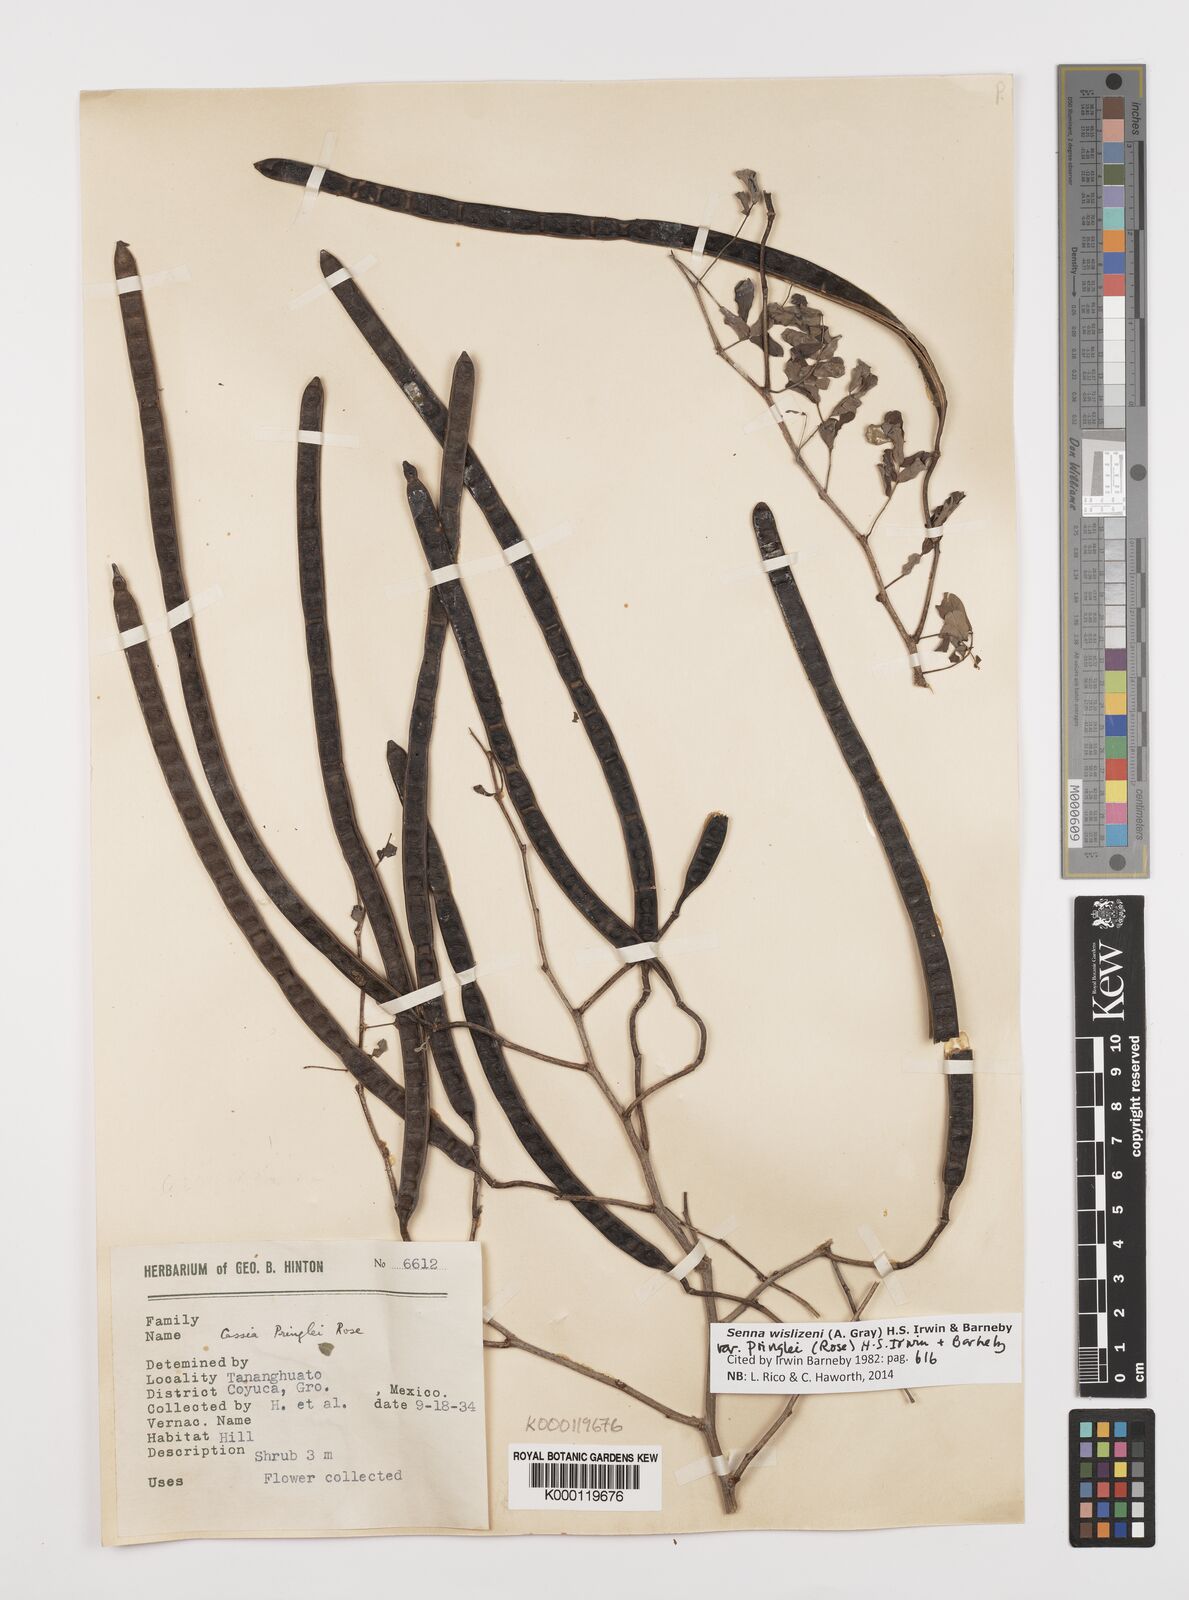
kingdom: Plantae
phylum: Tracheophyta
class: Magnoliopsida
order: Fabales
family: Fabaceae
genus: Senna
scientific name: Senna wislizeni
